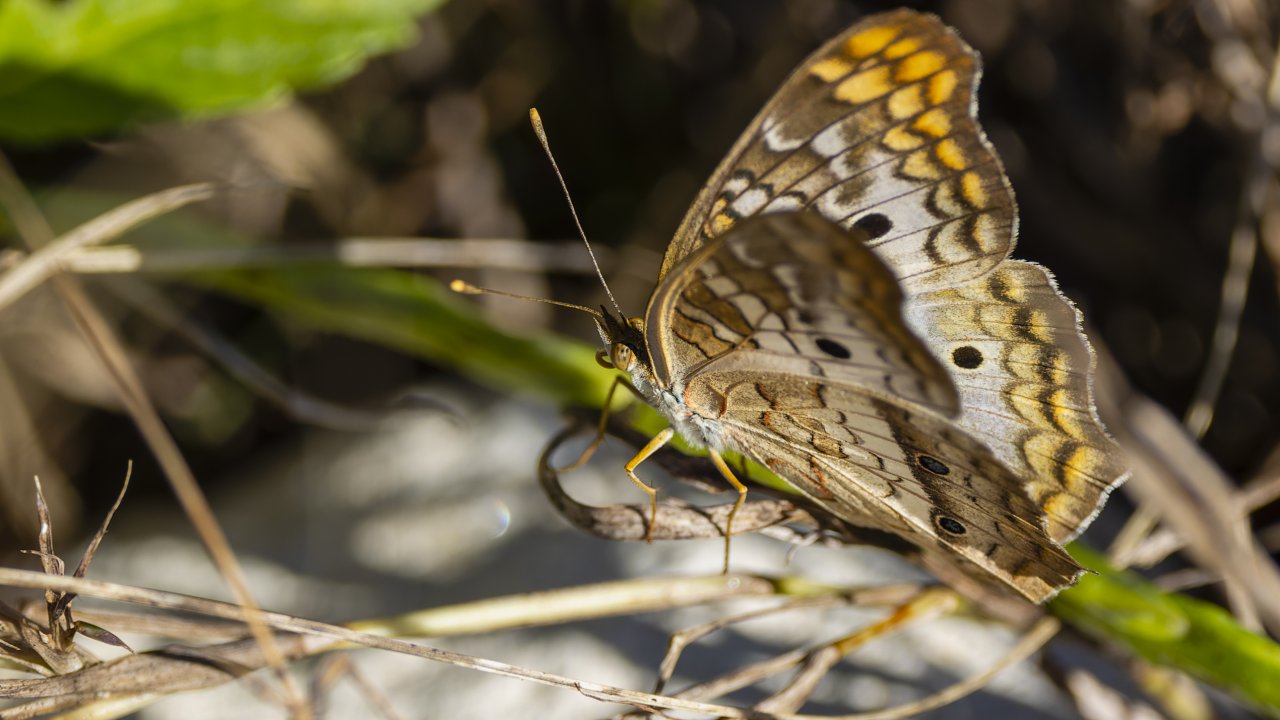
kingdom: Animalia
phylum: Arthropoda
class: Insecta
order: Lepidoptera
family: Nymphalidae
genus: Anartia
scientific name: Anartia jatrophae
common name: White Peacock
